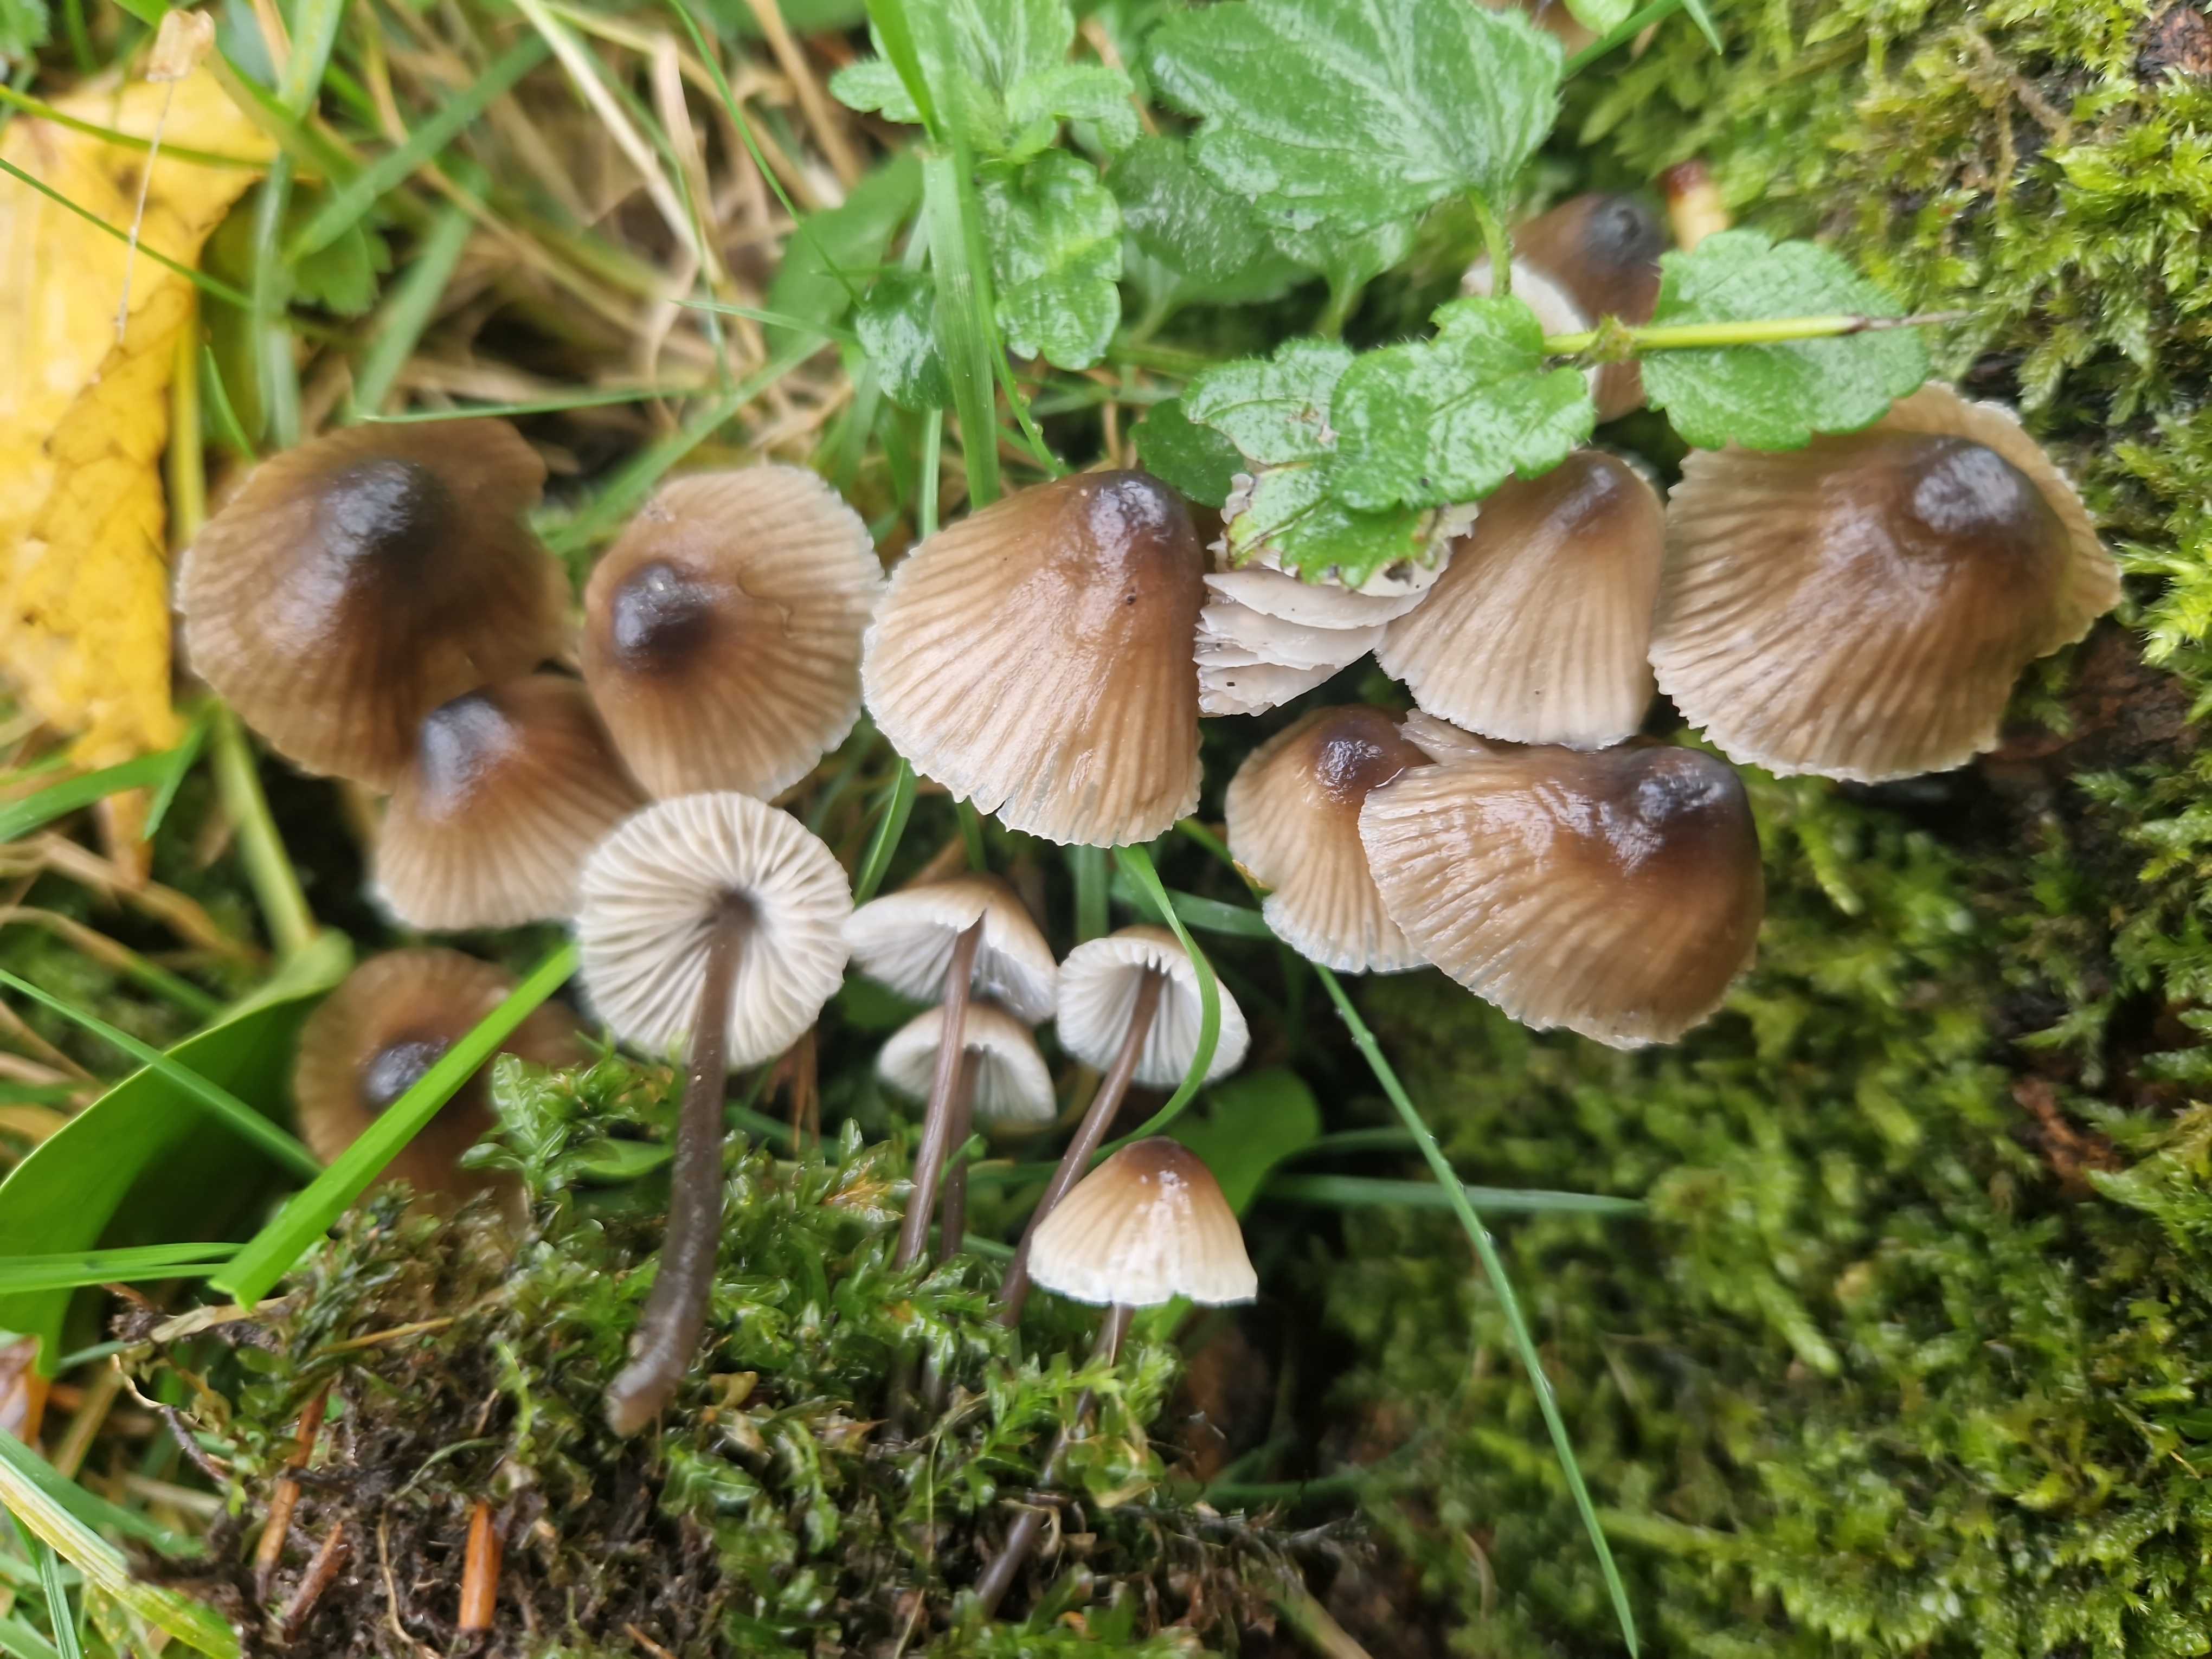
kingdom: Fungi
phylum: Basidiomycota
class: Agaricomycetes
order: Agaricales
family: Mycenaceae
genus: Mycena
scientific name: Mycena leptocephala
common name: klor-huesvamp
